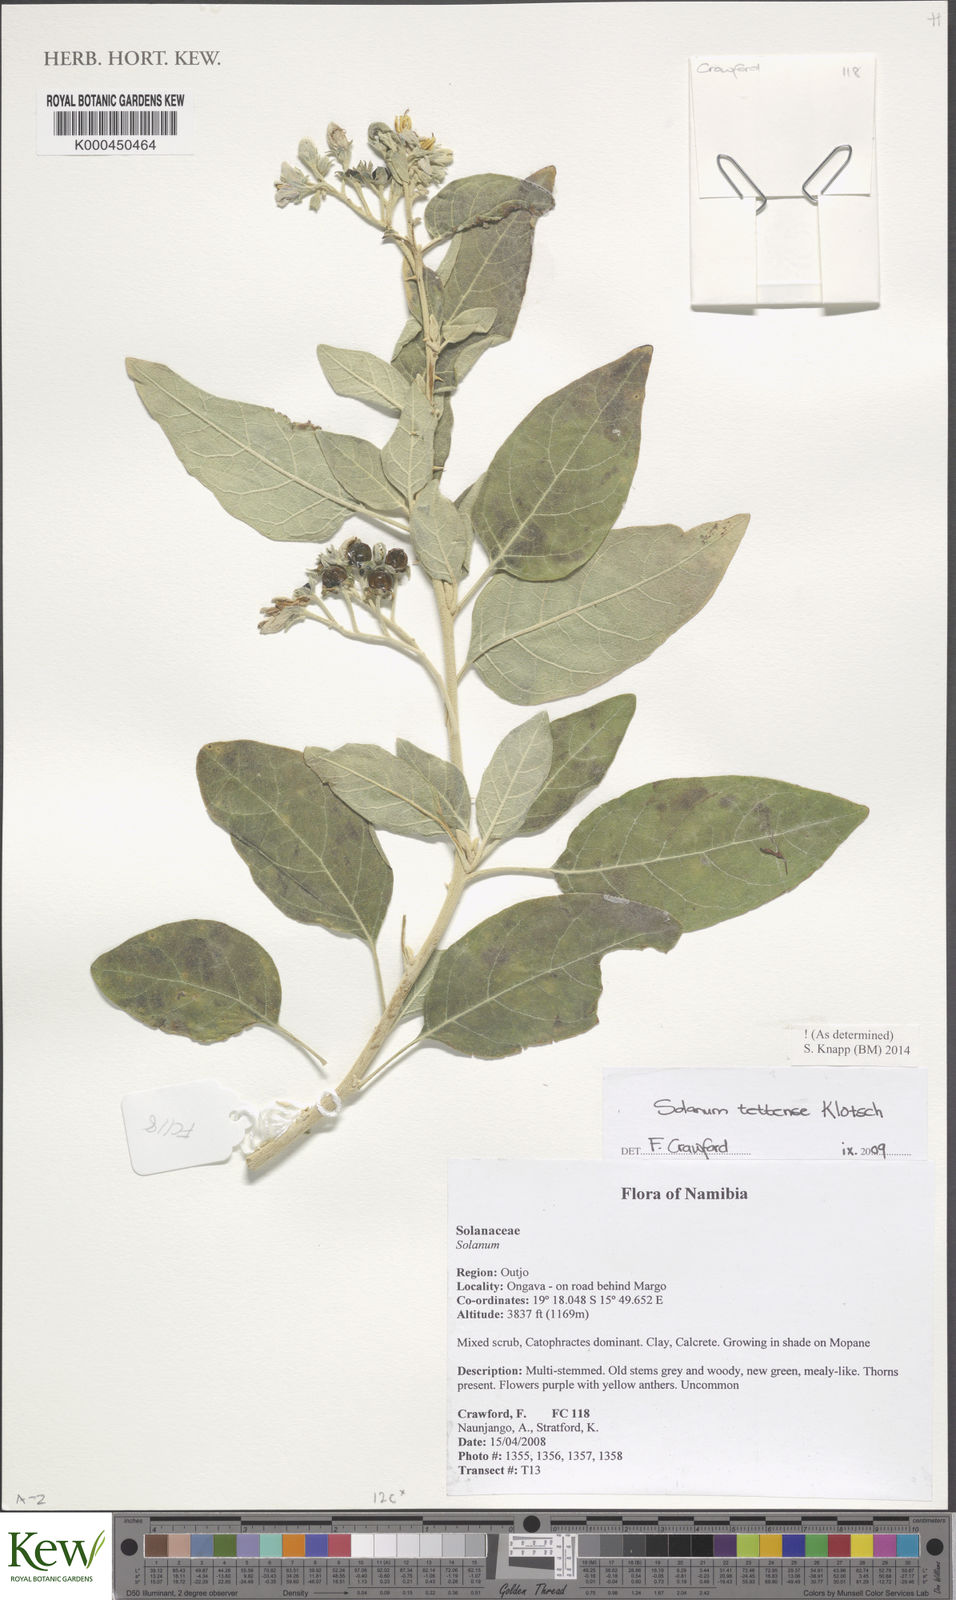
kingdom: Plantae
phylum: Tracheophyta
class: Magnoliopsida
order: Solanales
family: Solanaceae
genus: Solanum
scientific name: Solanum tettense
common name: Mozambique bitter apple
